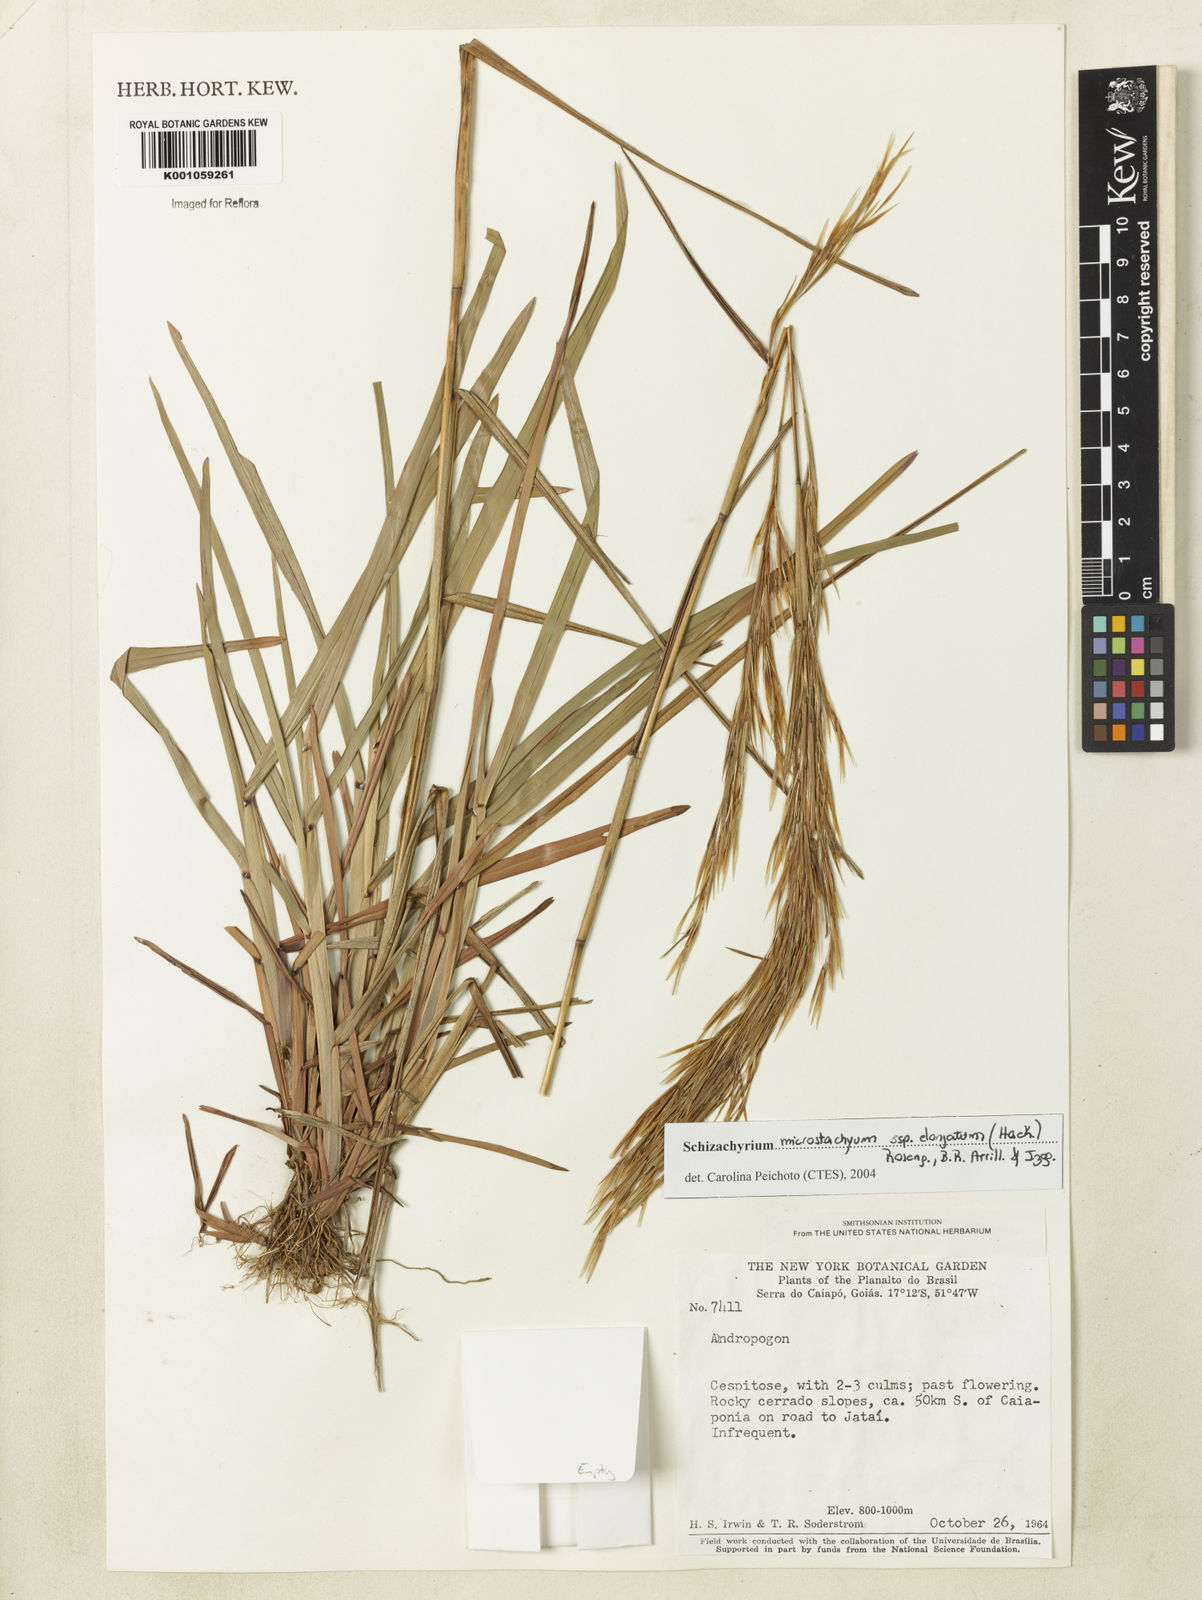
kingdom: Plantae
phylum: Tracheophyta
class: Liliopsida
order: Poales
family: Poaceae
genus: Schizachyrium
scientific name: Schizachyrium
